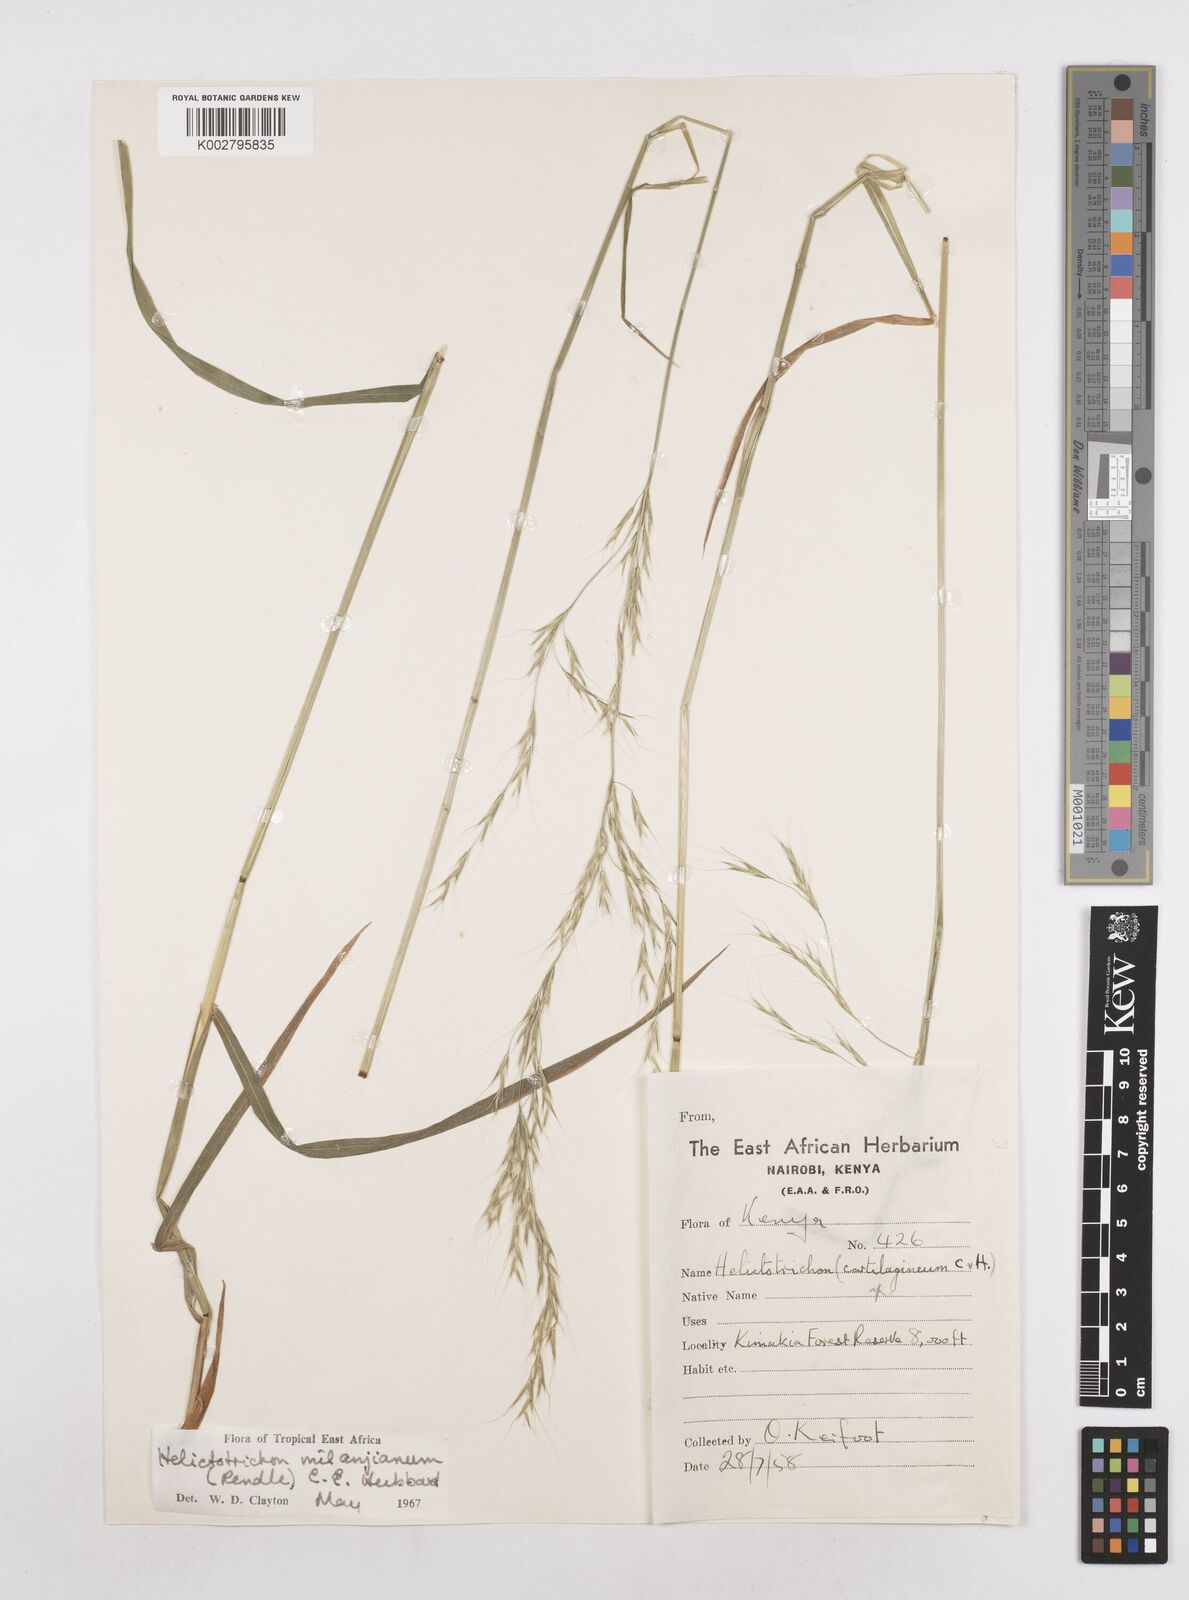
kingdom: Plantae
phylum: Tracheophyta
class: Liliopsida
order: Poales
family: Poaceae
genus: Trisetopsis
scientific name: Trisetopsis milanjiana
